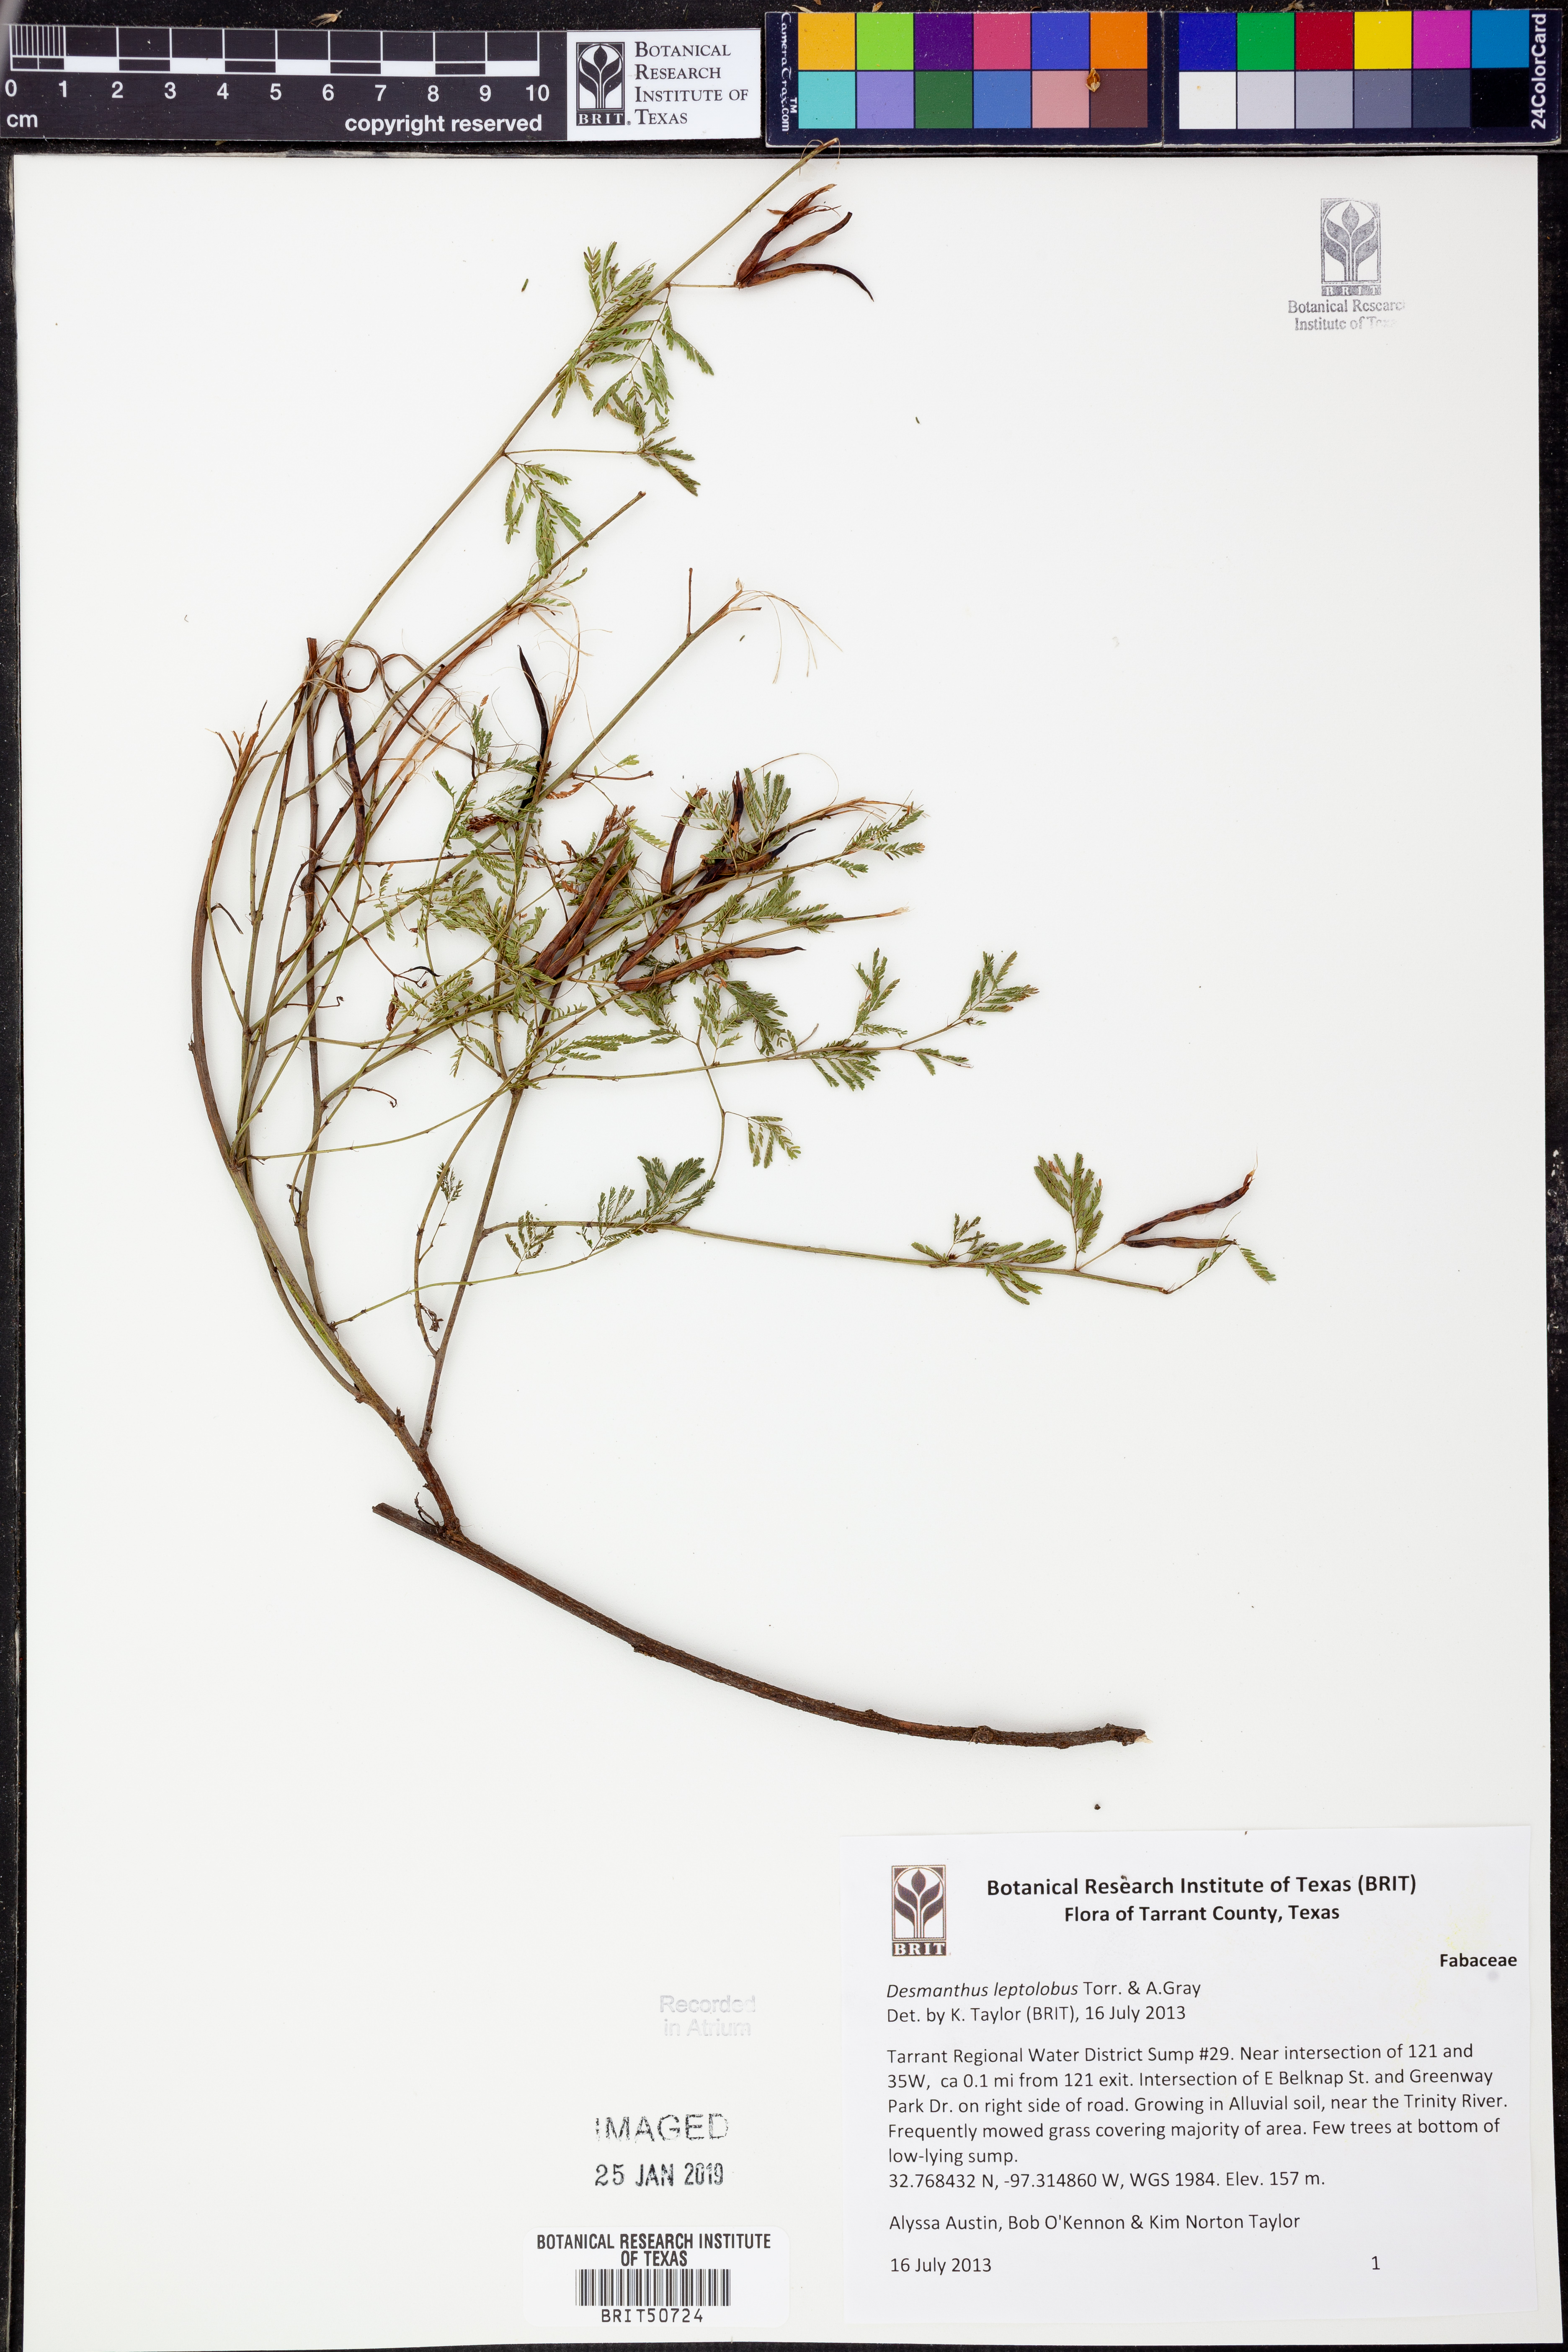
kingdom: Plantae
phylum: Tracheophyta
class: Magnoliopsida
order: Fabales
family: Fabaceae
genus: Desmanthus
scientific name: Desmanthus leptolobus
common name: Prairie-mimosa
